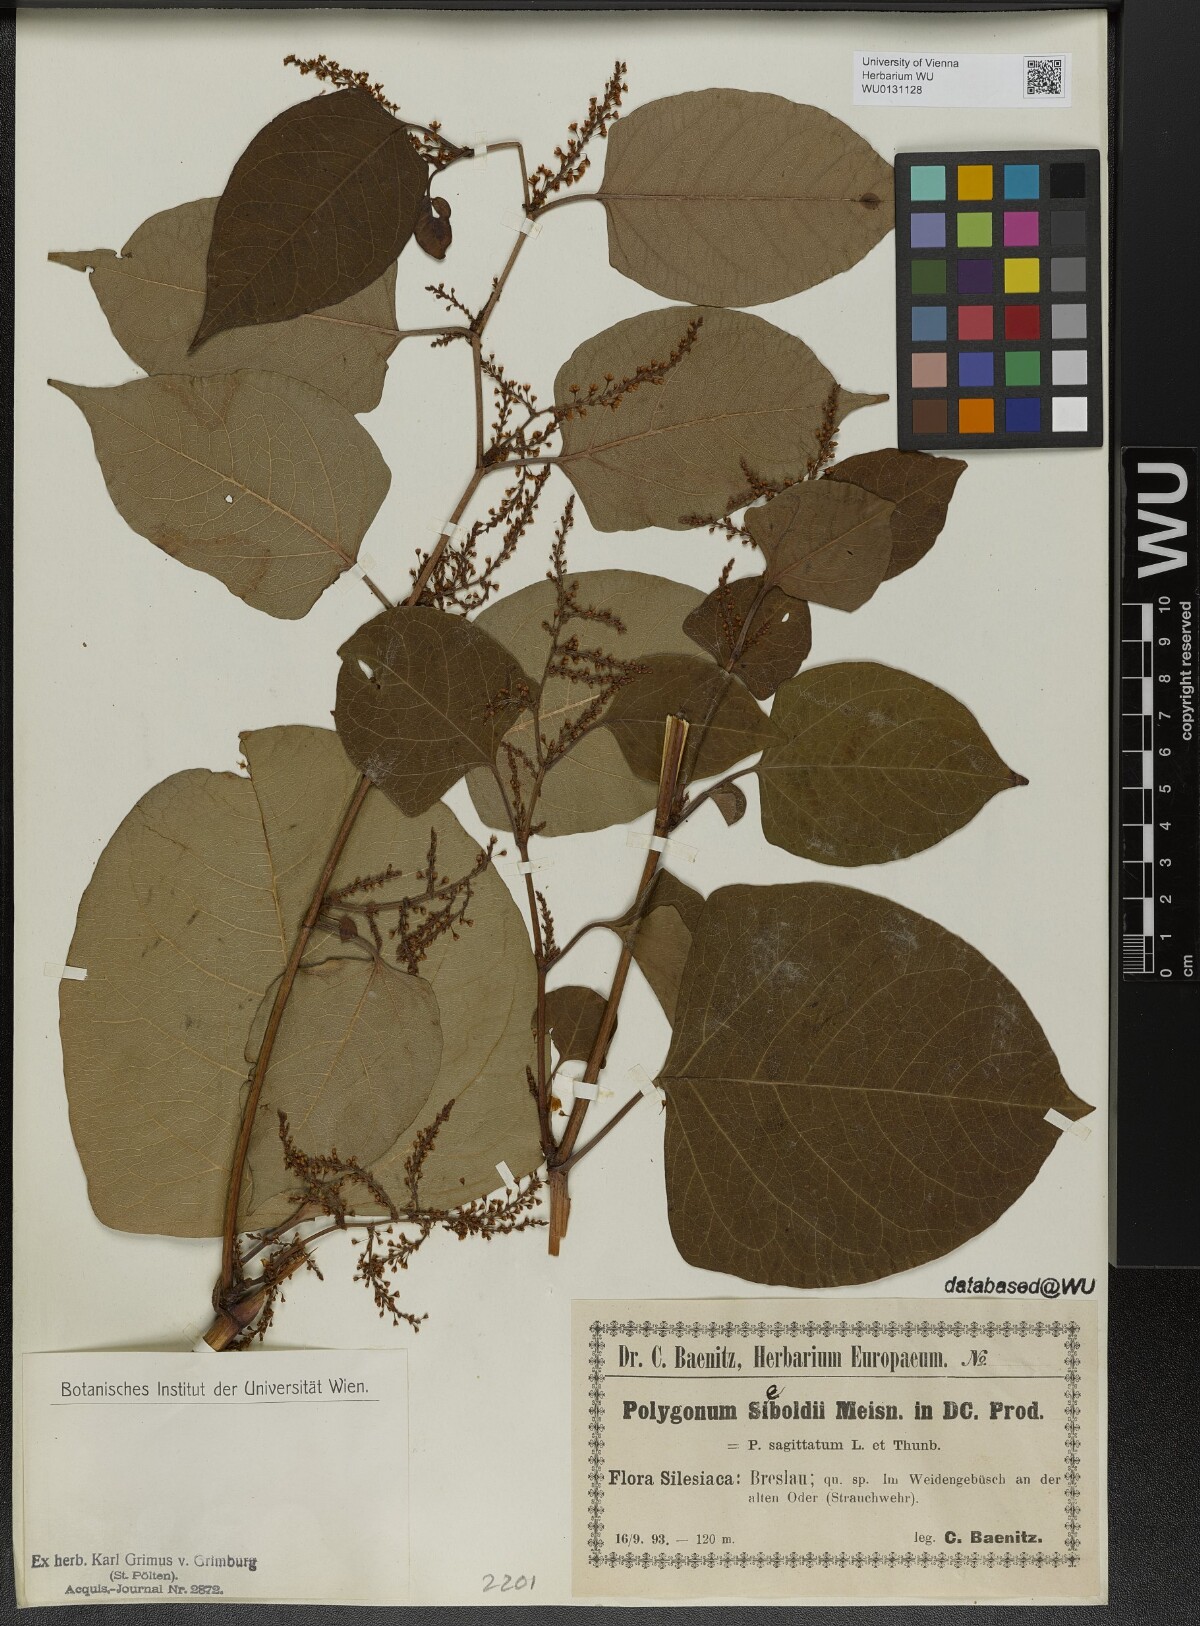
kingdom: Plantae
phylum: Tracheophyta
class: Magnoliopsida
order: Caryophyllales
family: Polygonaceae
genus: Reynoutria
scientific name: Reynoutria bohemica
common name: Bohemian knotweed
